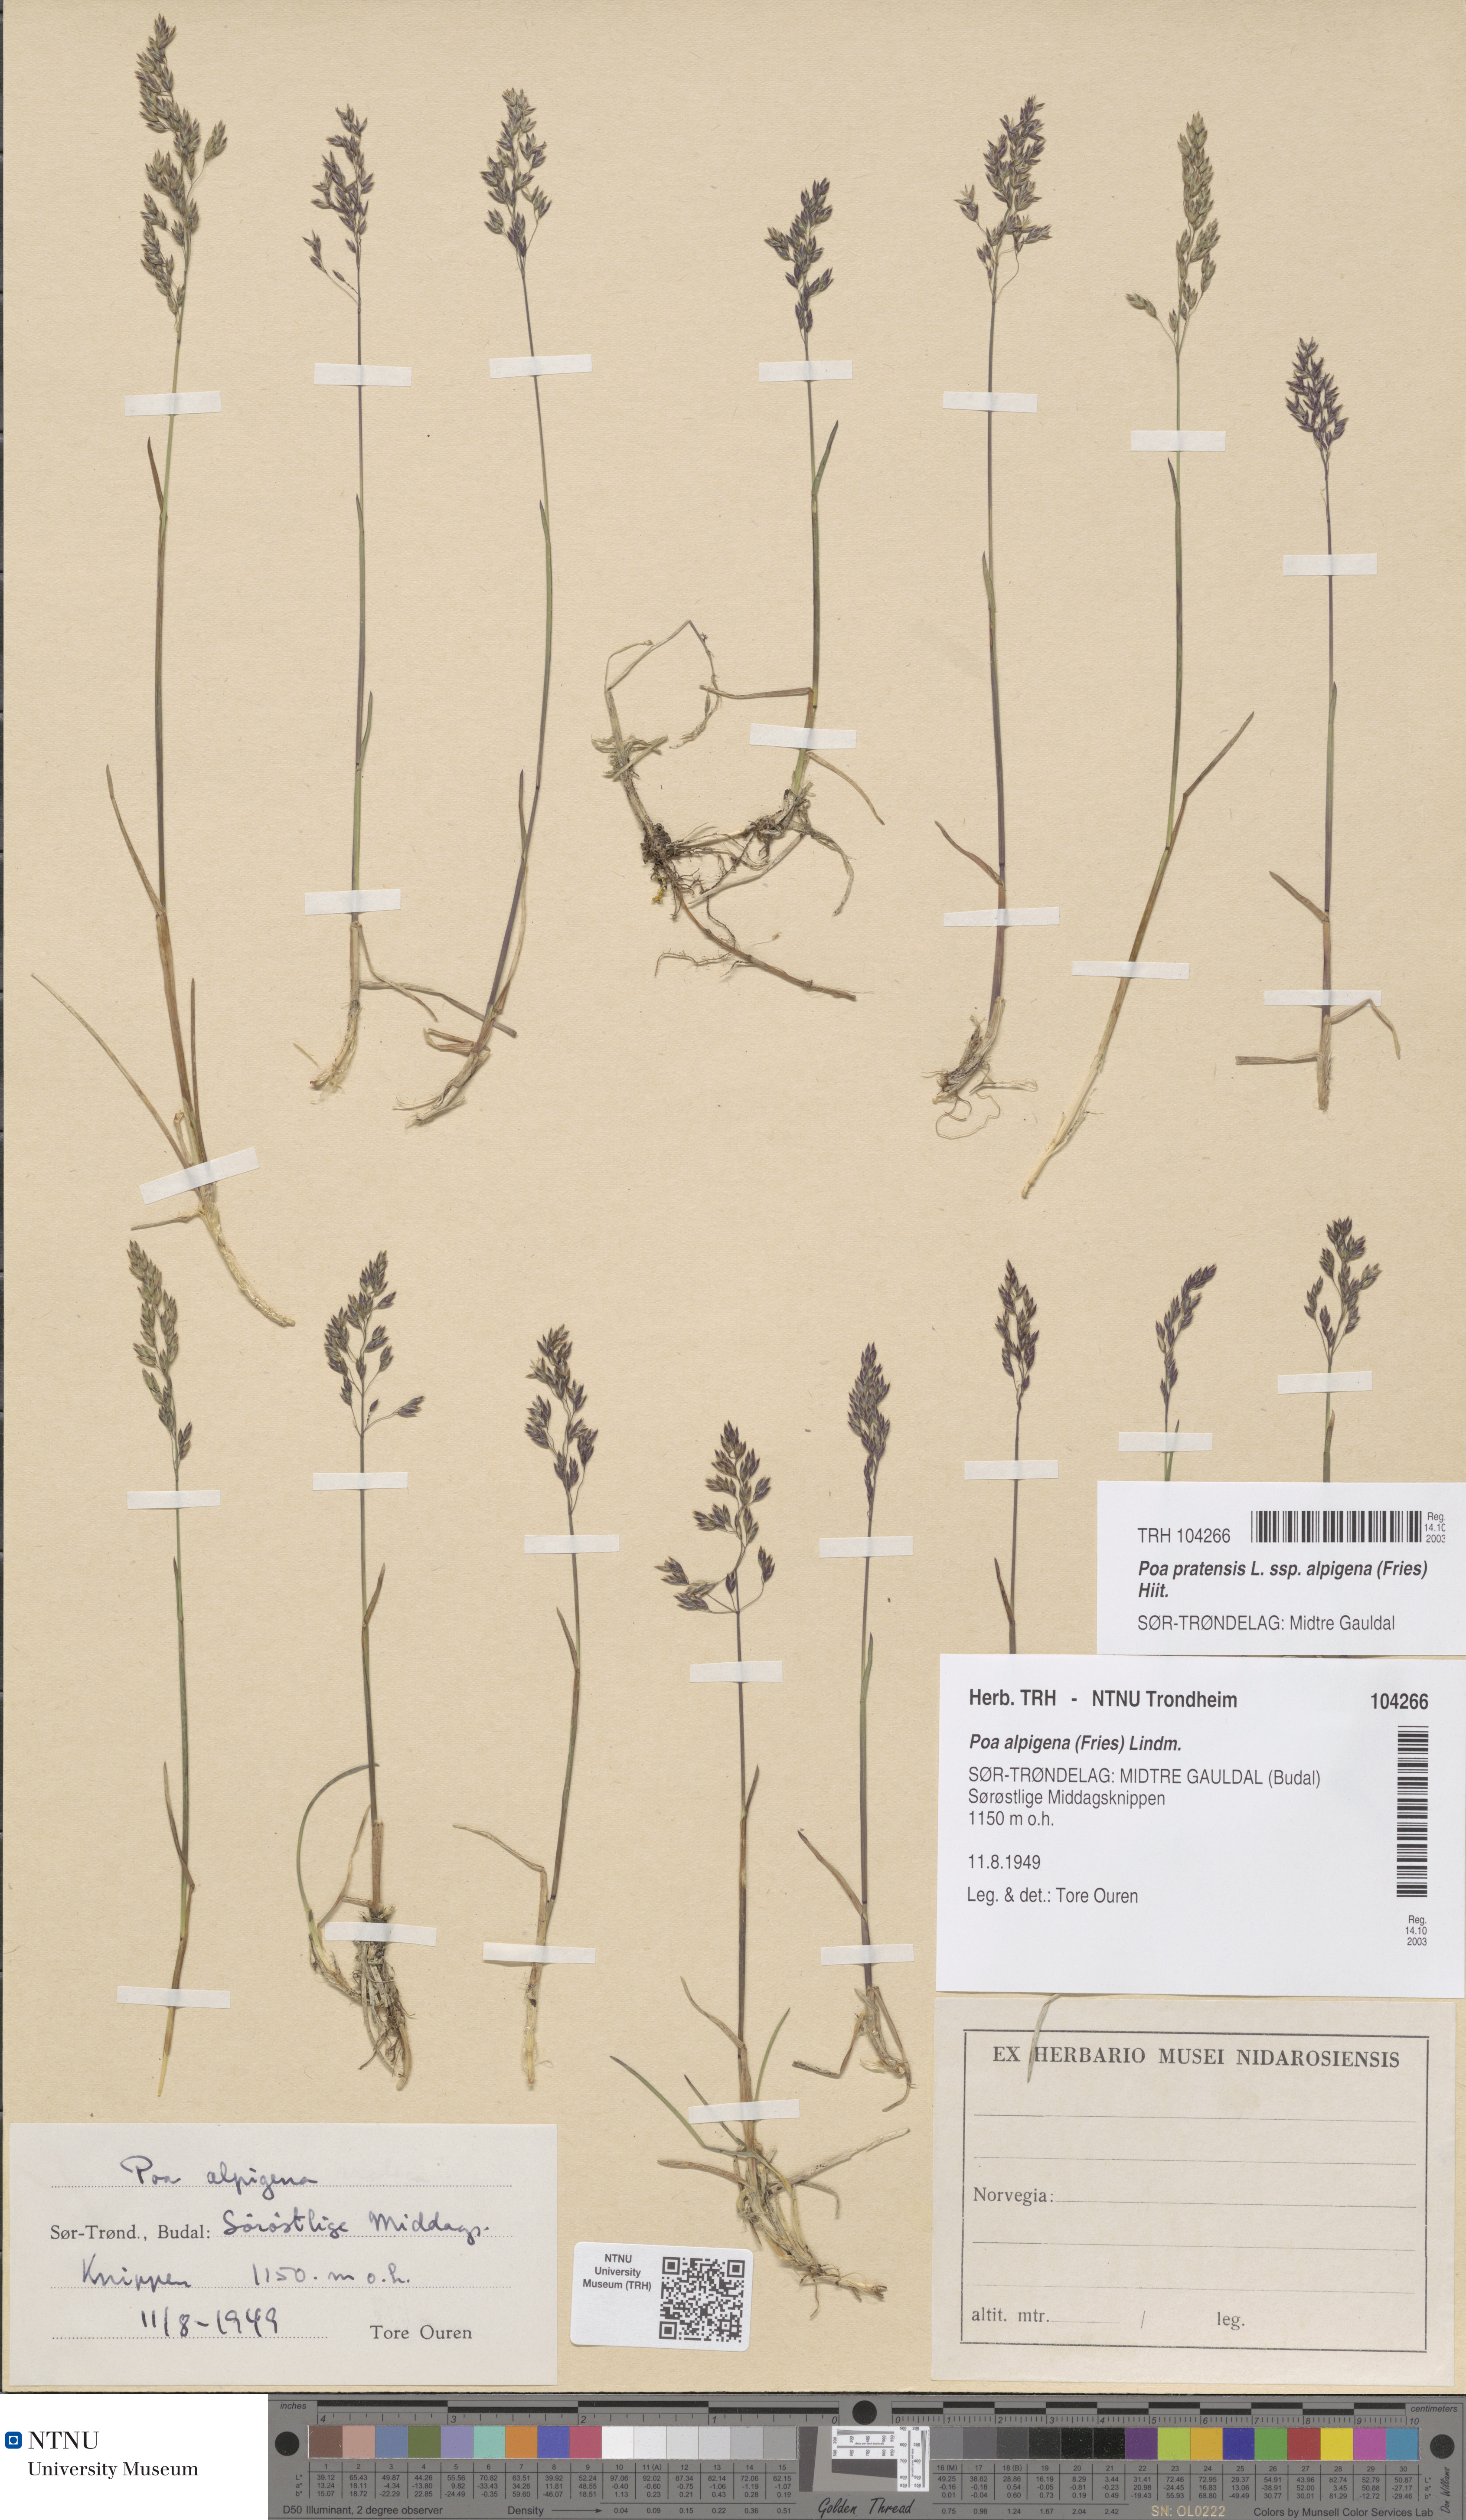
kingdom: Plantae
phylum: Tracheophyta
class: Liliopsida
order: Poales
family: Poaceae
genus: Poa
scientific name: Poa alpigena
